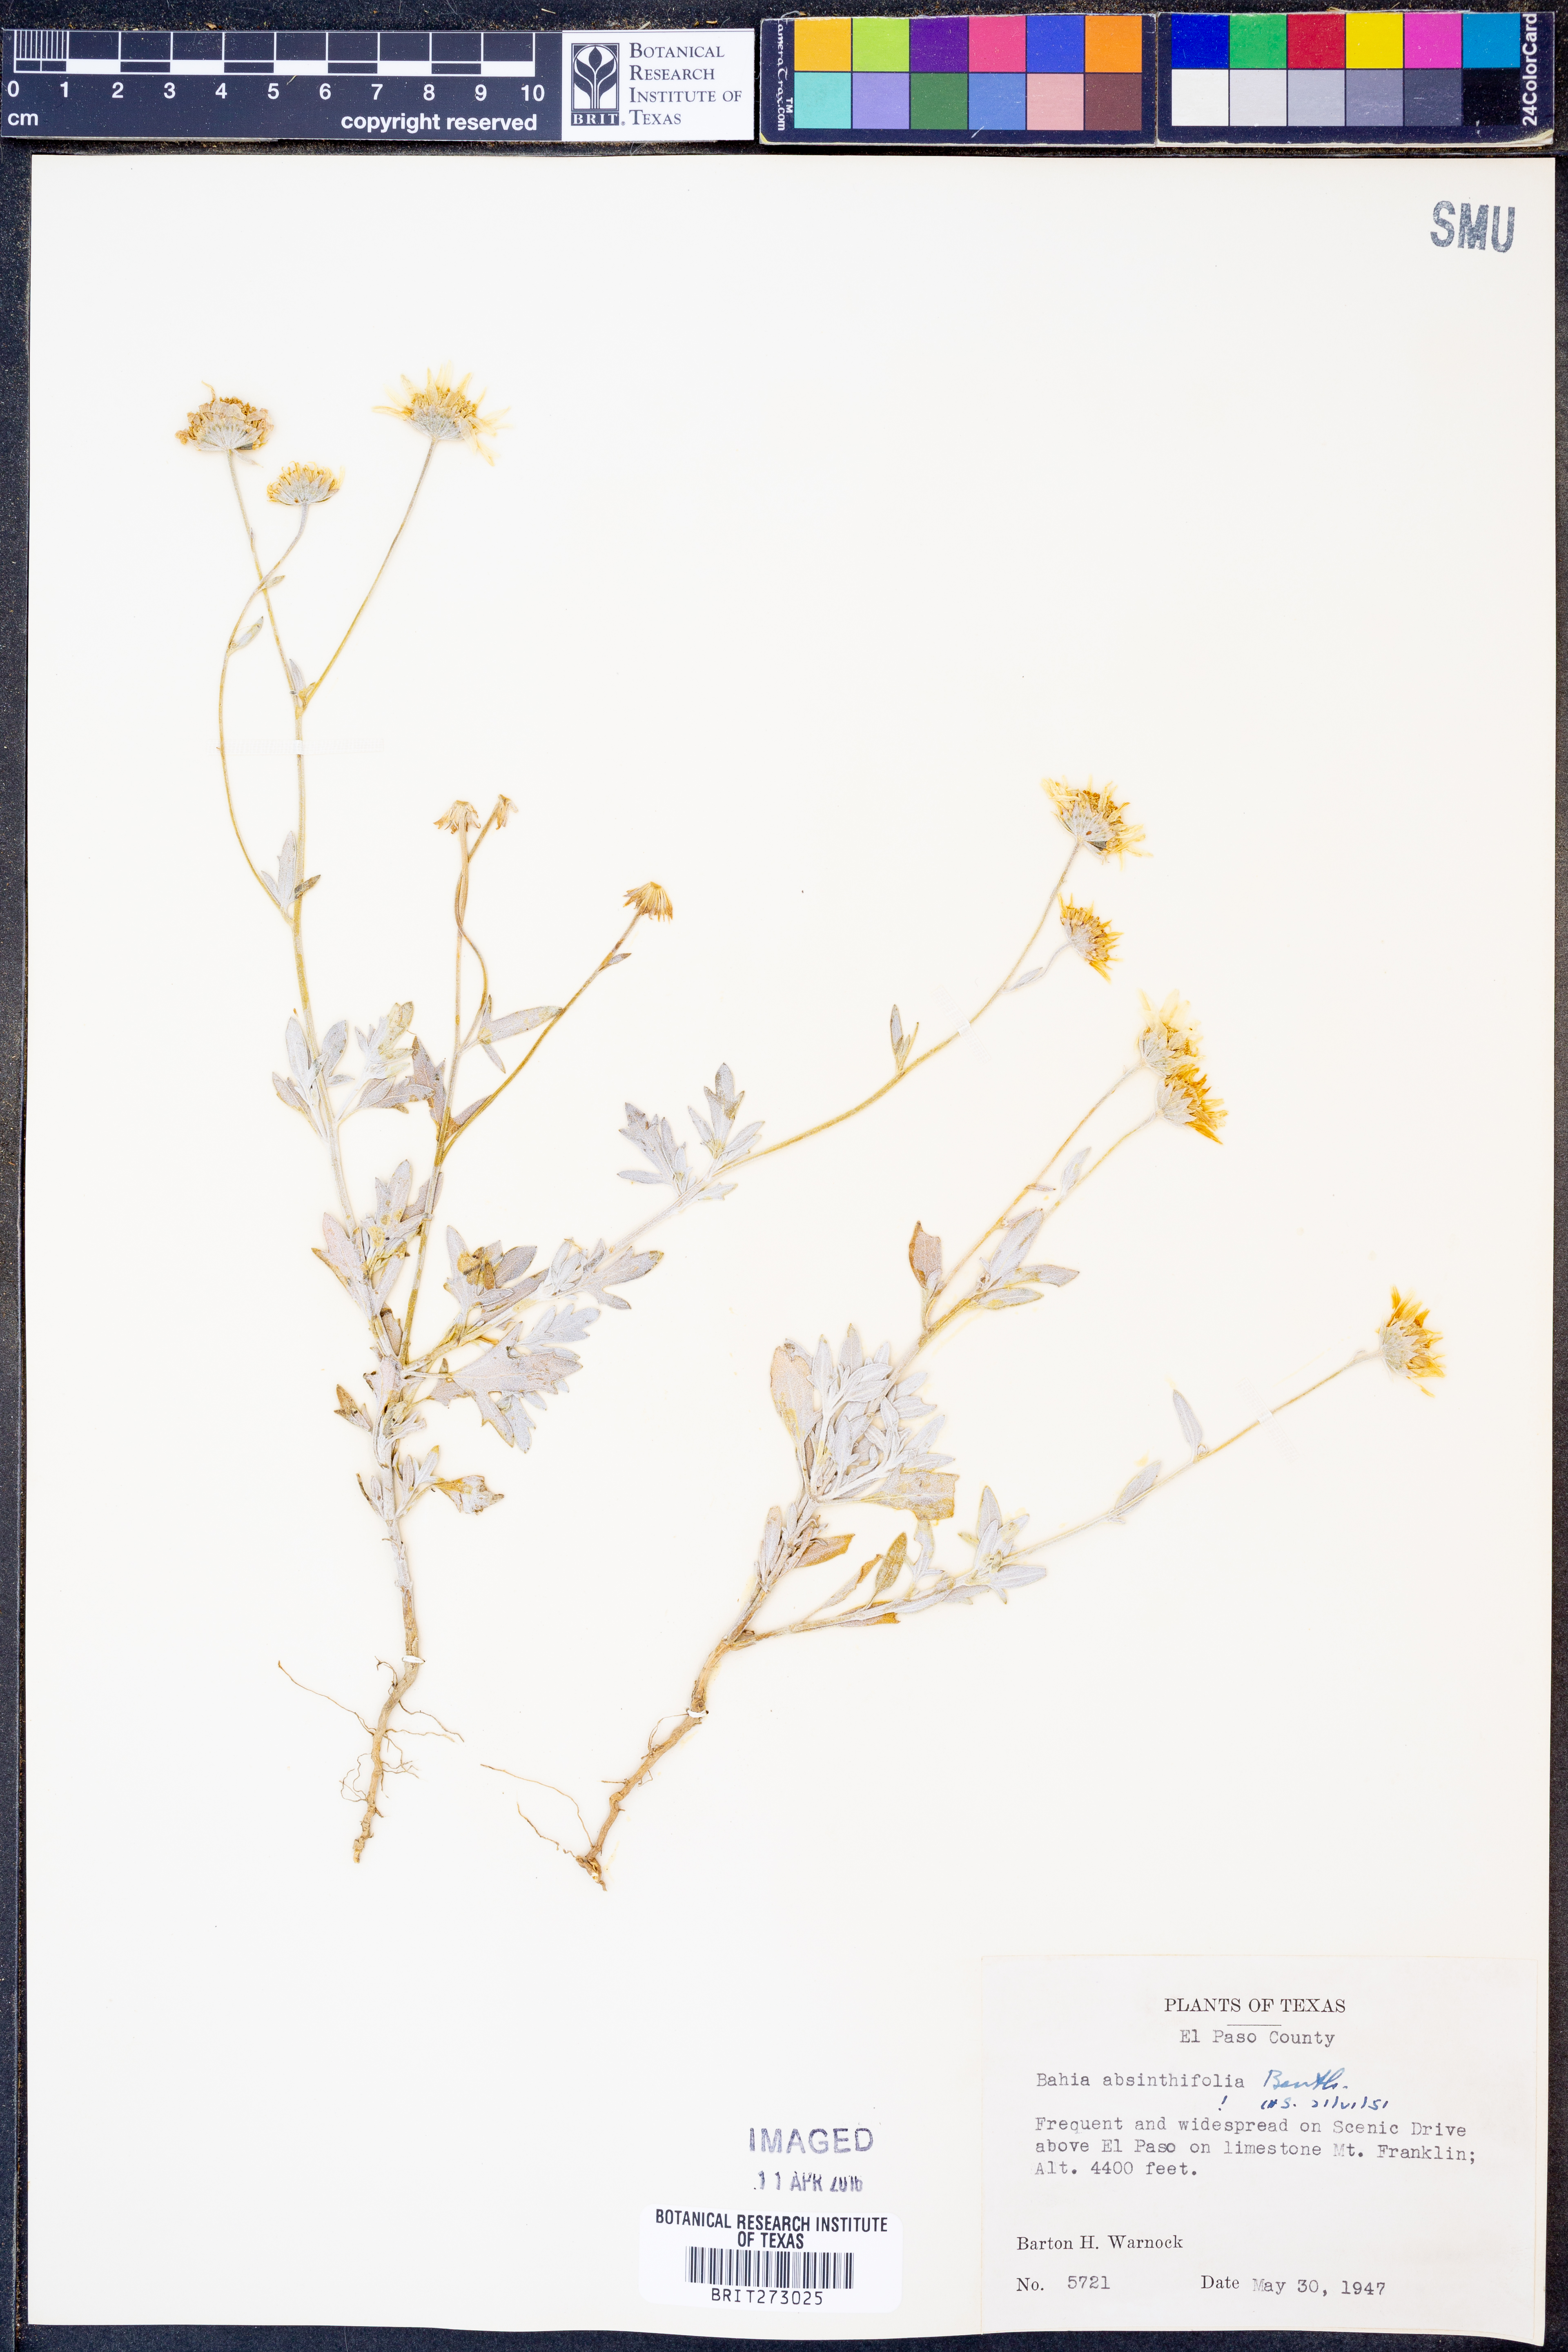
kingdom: Plantae
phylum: Tracheophyta
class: Magnoliopsida
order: Asterales
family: Asteraceae
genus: Picradeniopsis
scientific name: Picradeniopsis absinthifolia
